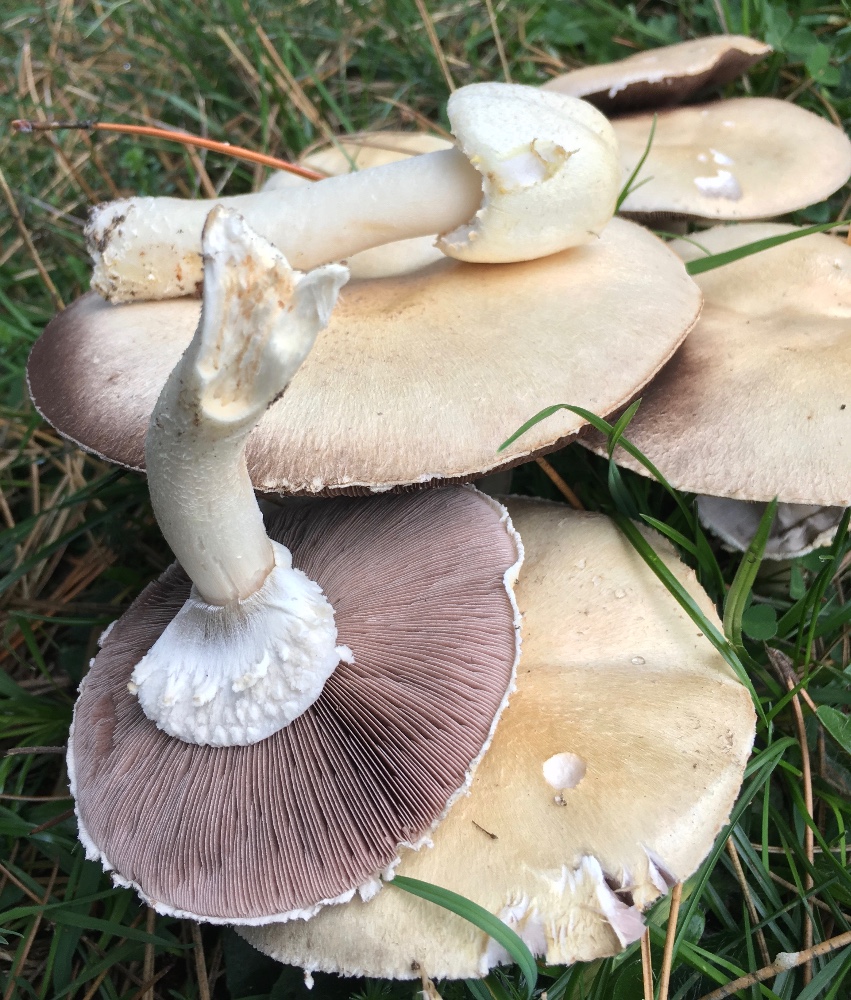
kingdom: Fungi
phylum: Basidiomycota
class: Agaricomycetes
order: Agaricales
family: Agaricaceae
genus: Agaricus
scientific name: Agaricus arvensis
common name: ager-champignon
